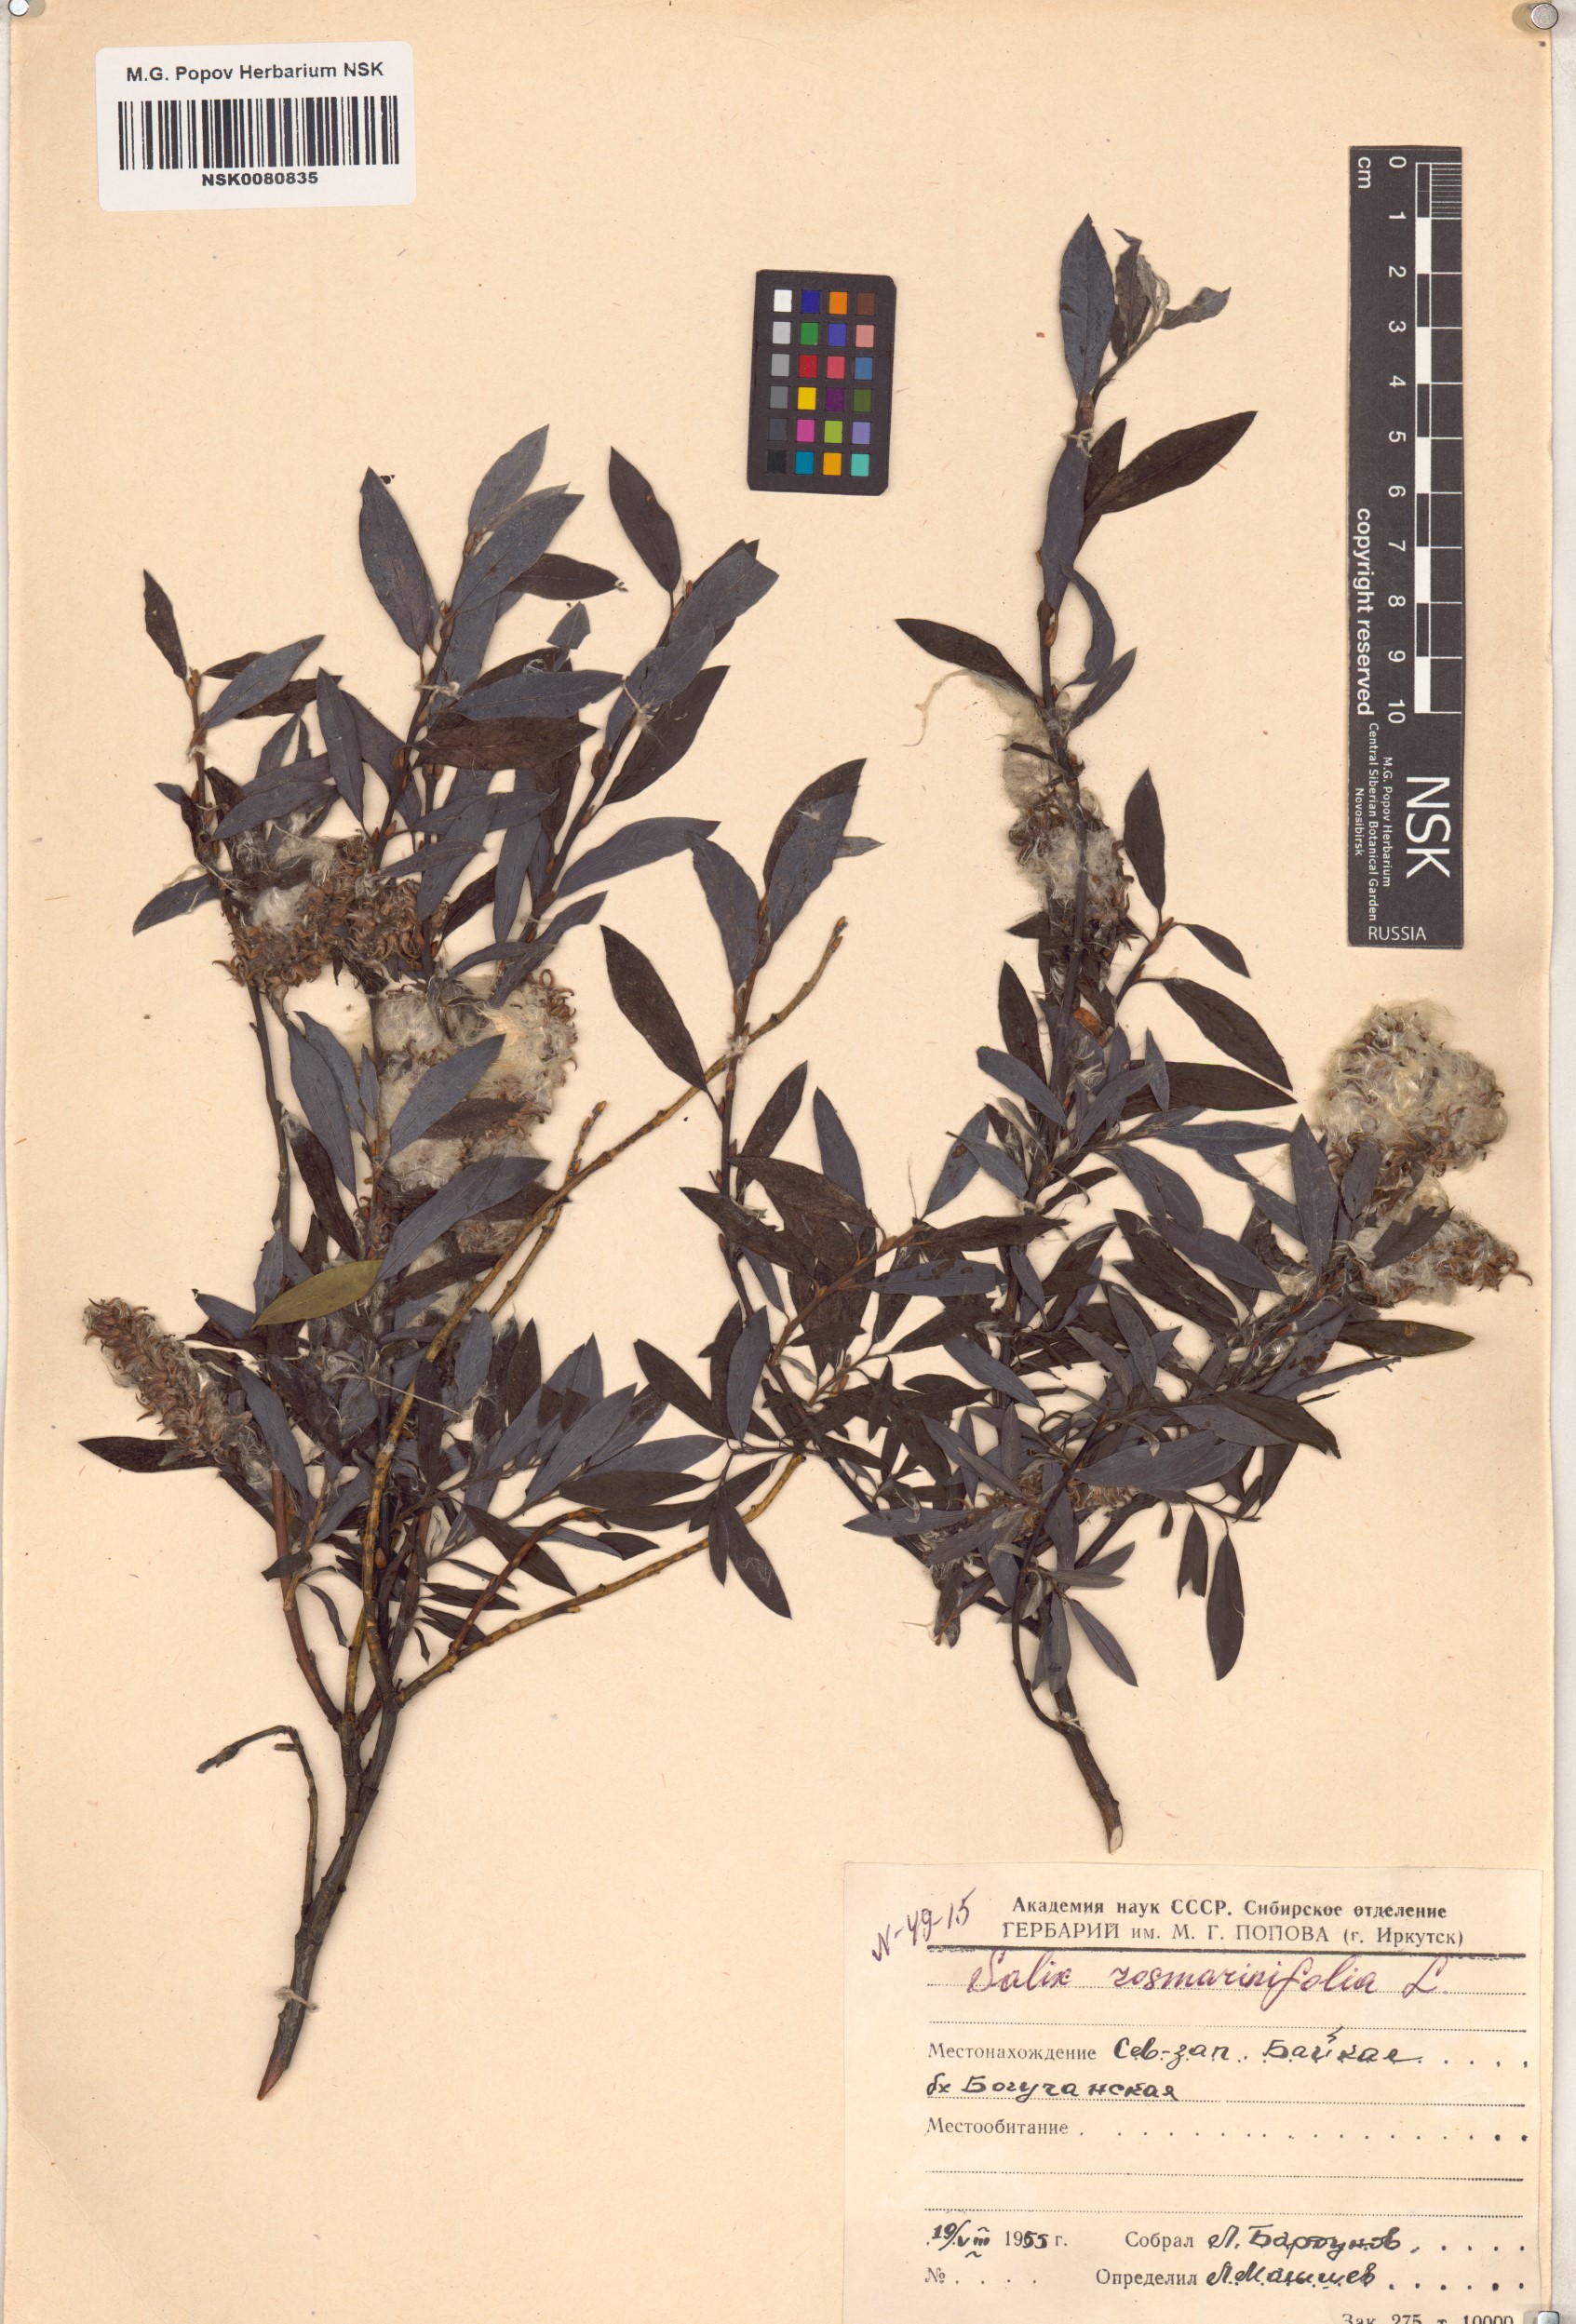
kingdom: Plantae
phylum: Tracheophyta
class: Magnoliopsida
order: Malpighiales
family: Salicaceae
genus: Salix
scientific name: Salix rosmarinifolia
